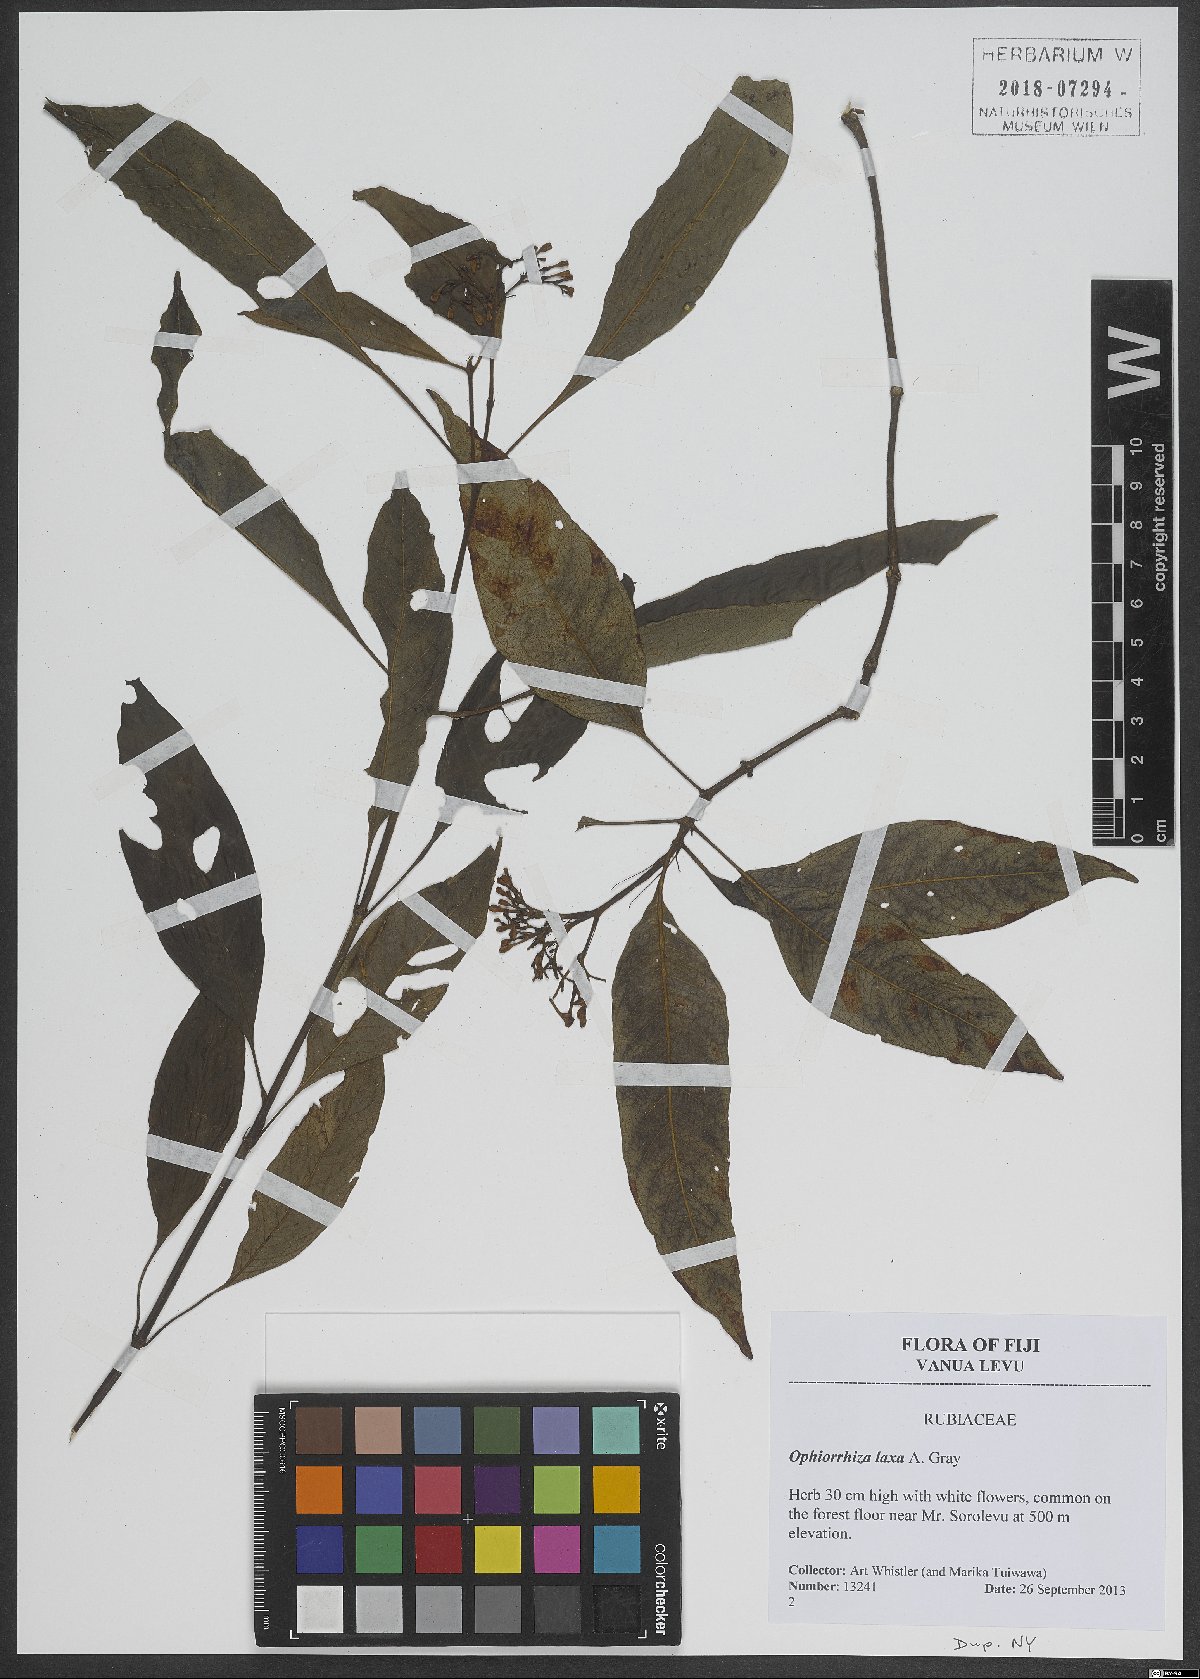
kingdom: Plantae
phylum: Tracheophyta
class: Magnoliopsida
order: Gentianales
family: Rubiaceae
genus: Ophiorrhiza
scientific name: Ophiorrhiza laxa
